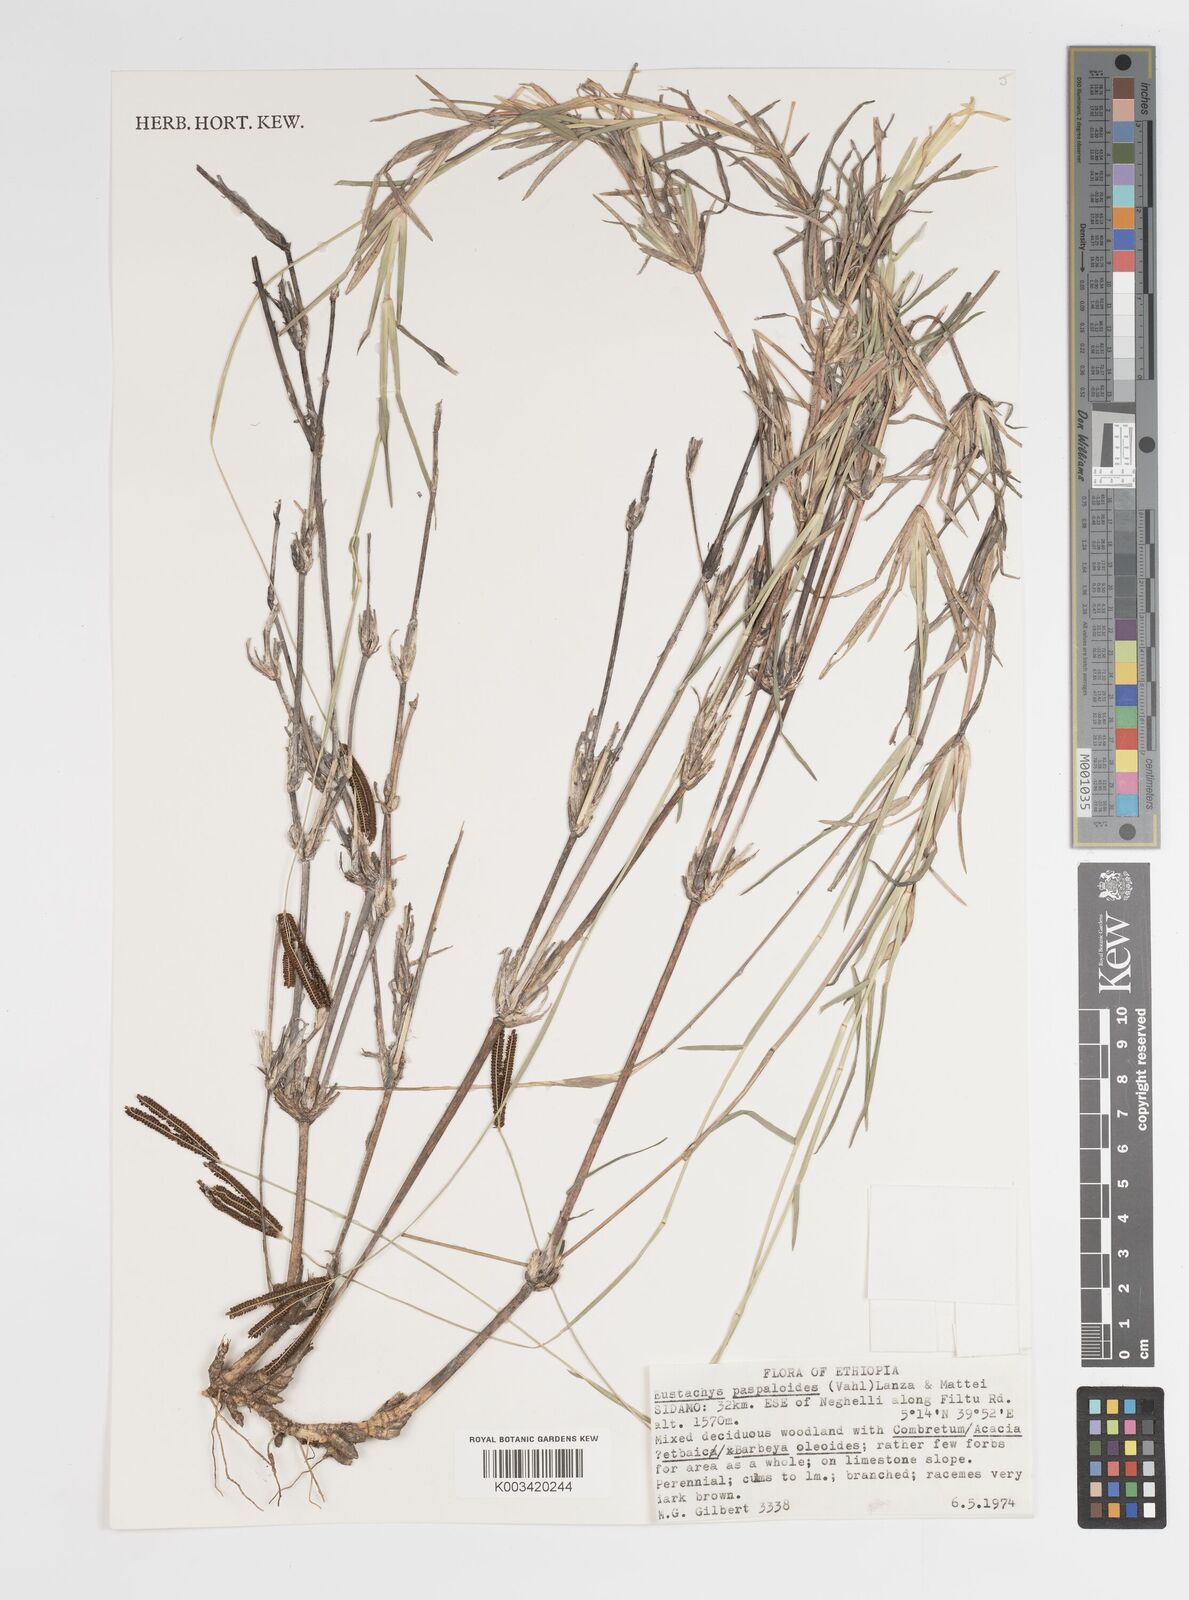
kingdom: Plantae
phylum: Tracheophyta
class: Liliopsida
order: Poales
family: Poaceae
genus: Eustachys
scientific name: Eustachys paspaloides
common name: Caribbean fingergrass
